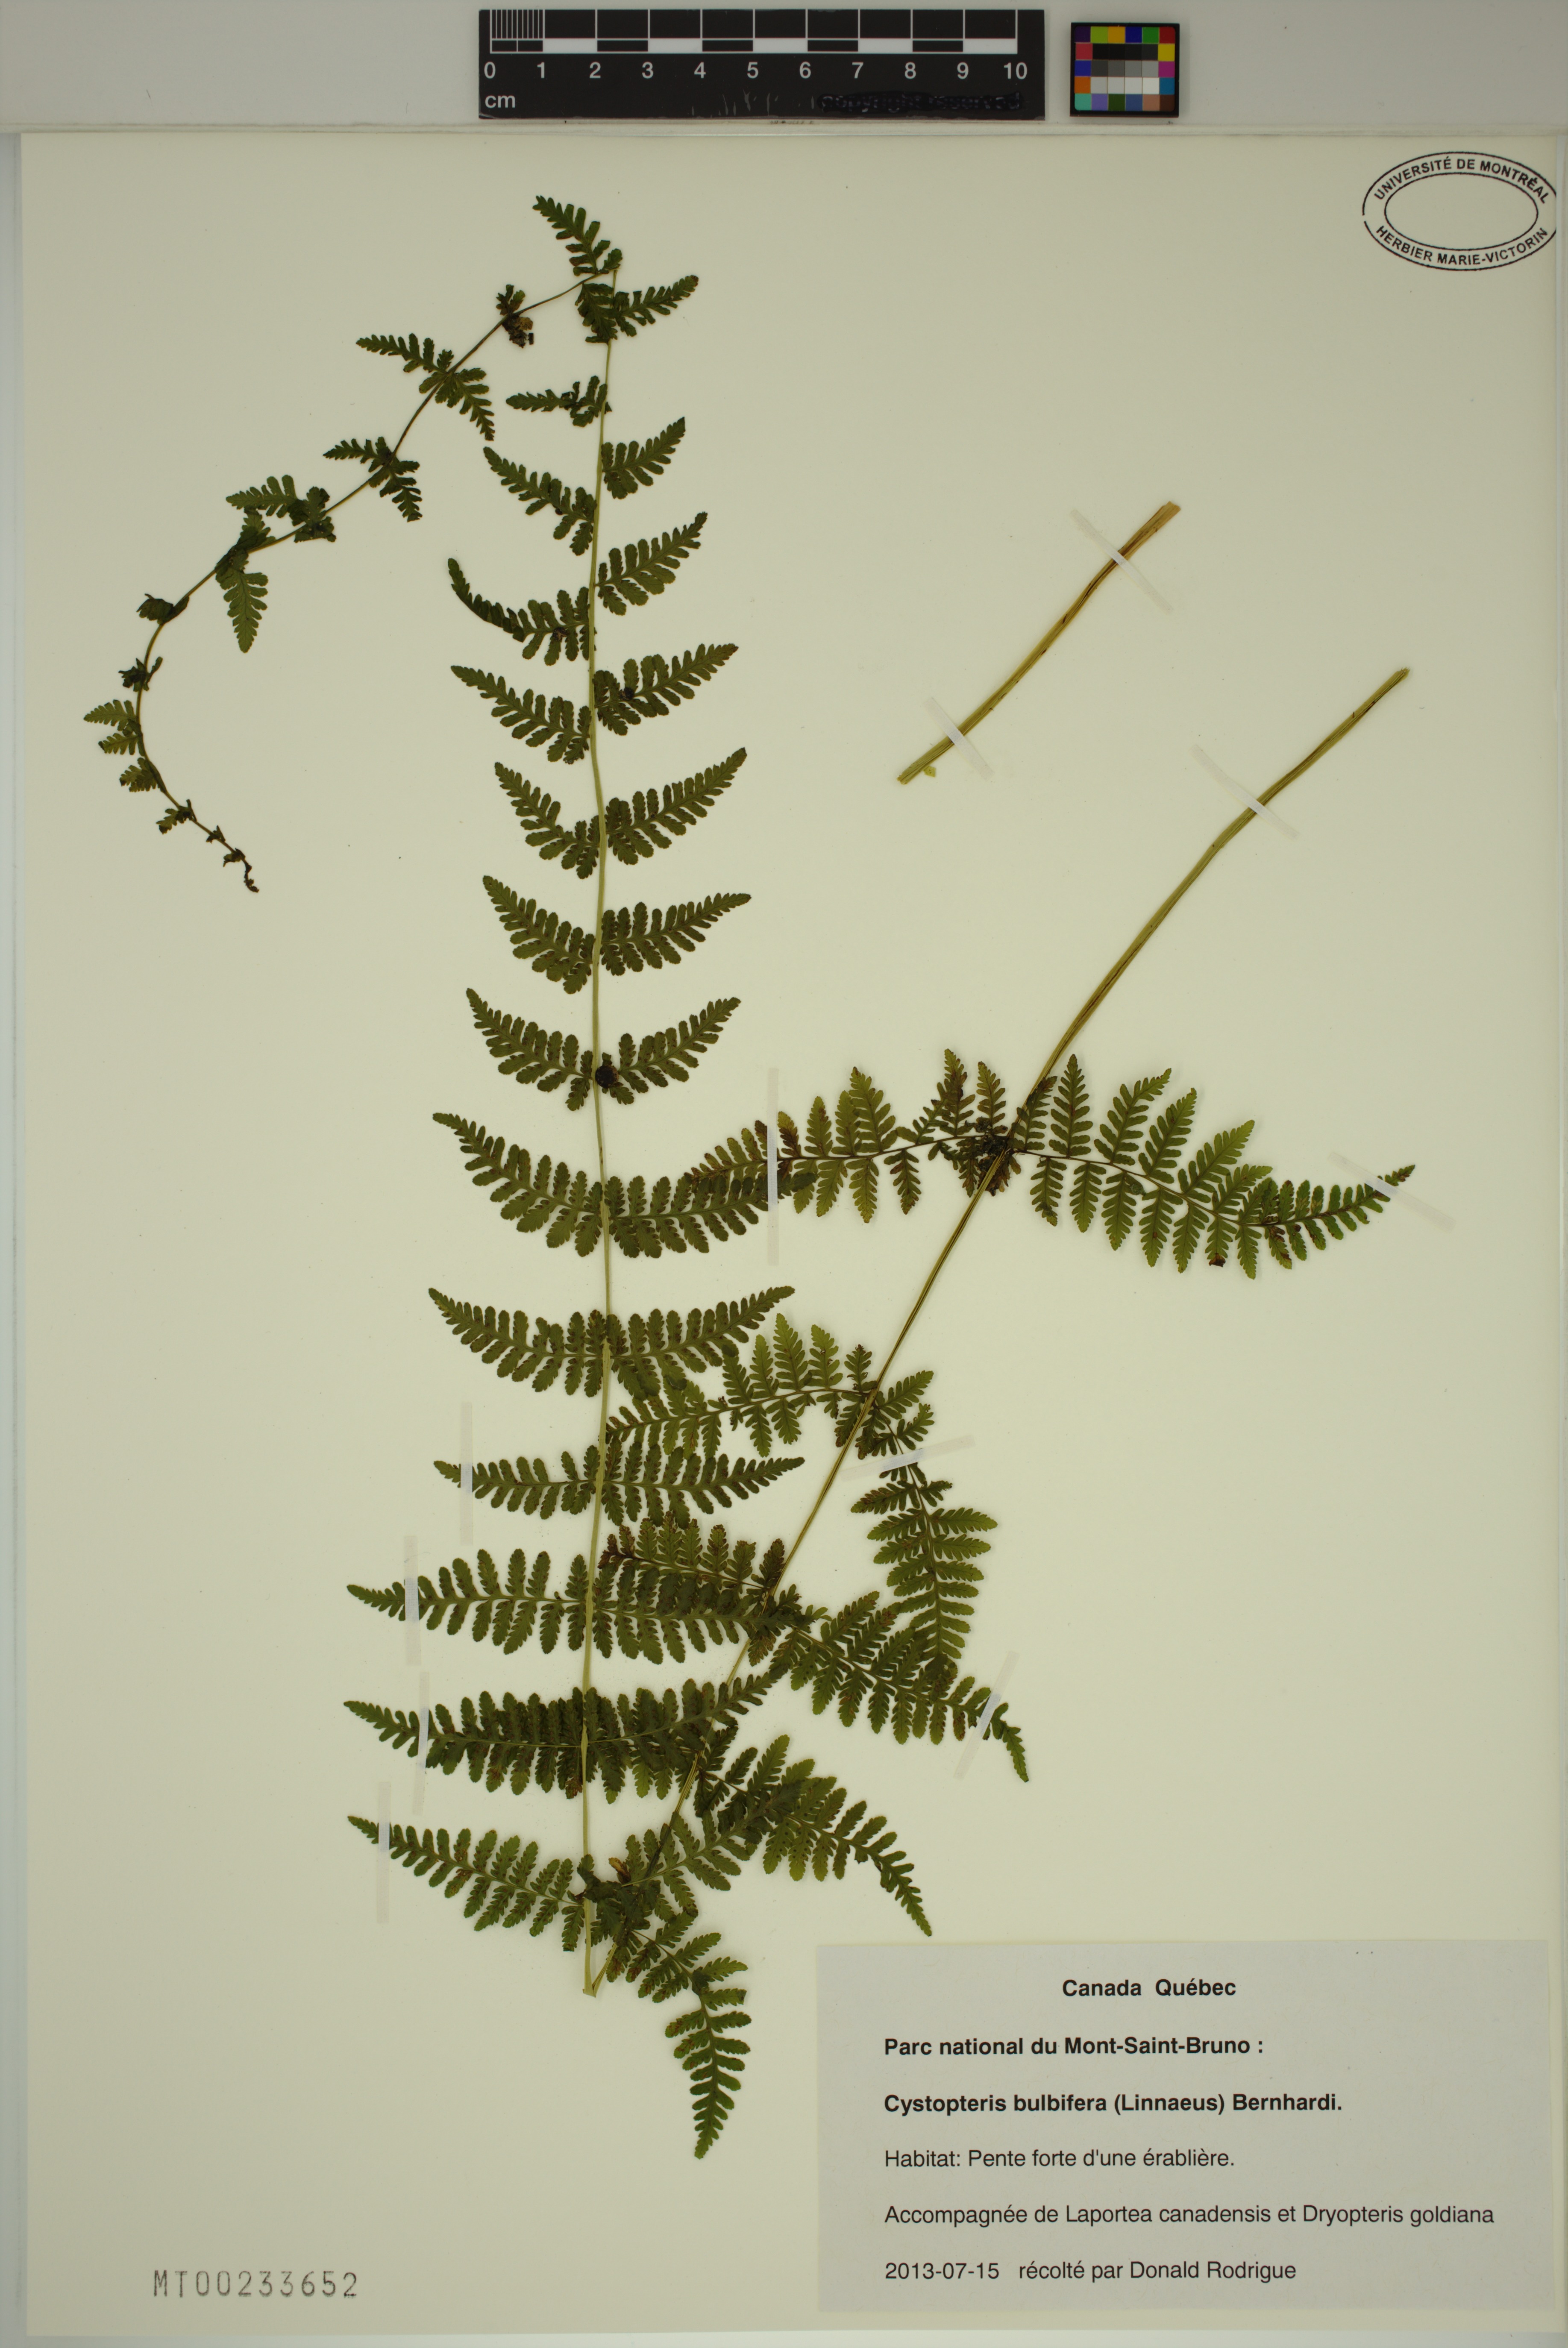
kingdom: Plantae
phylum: Tracheophyta
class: Polypodiopsida
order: Polypodiales
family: Cystopteridaceae
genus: Cystopteris
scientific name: Cystopteris bulbifera
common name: Bulblet bladder fern
